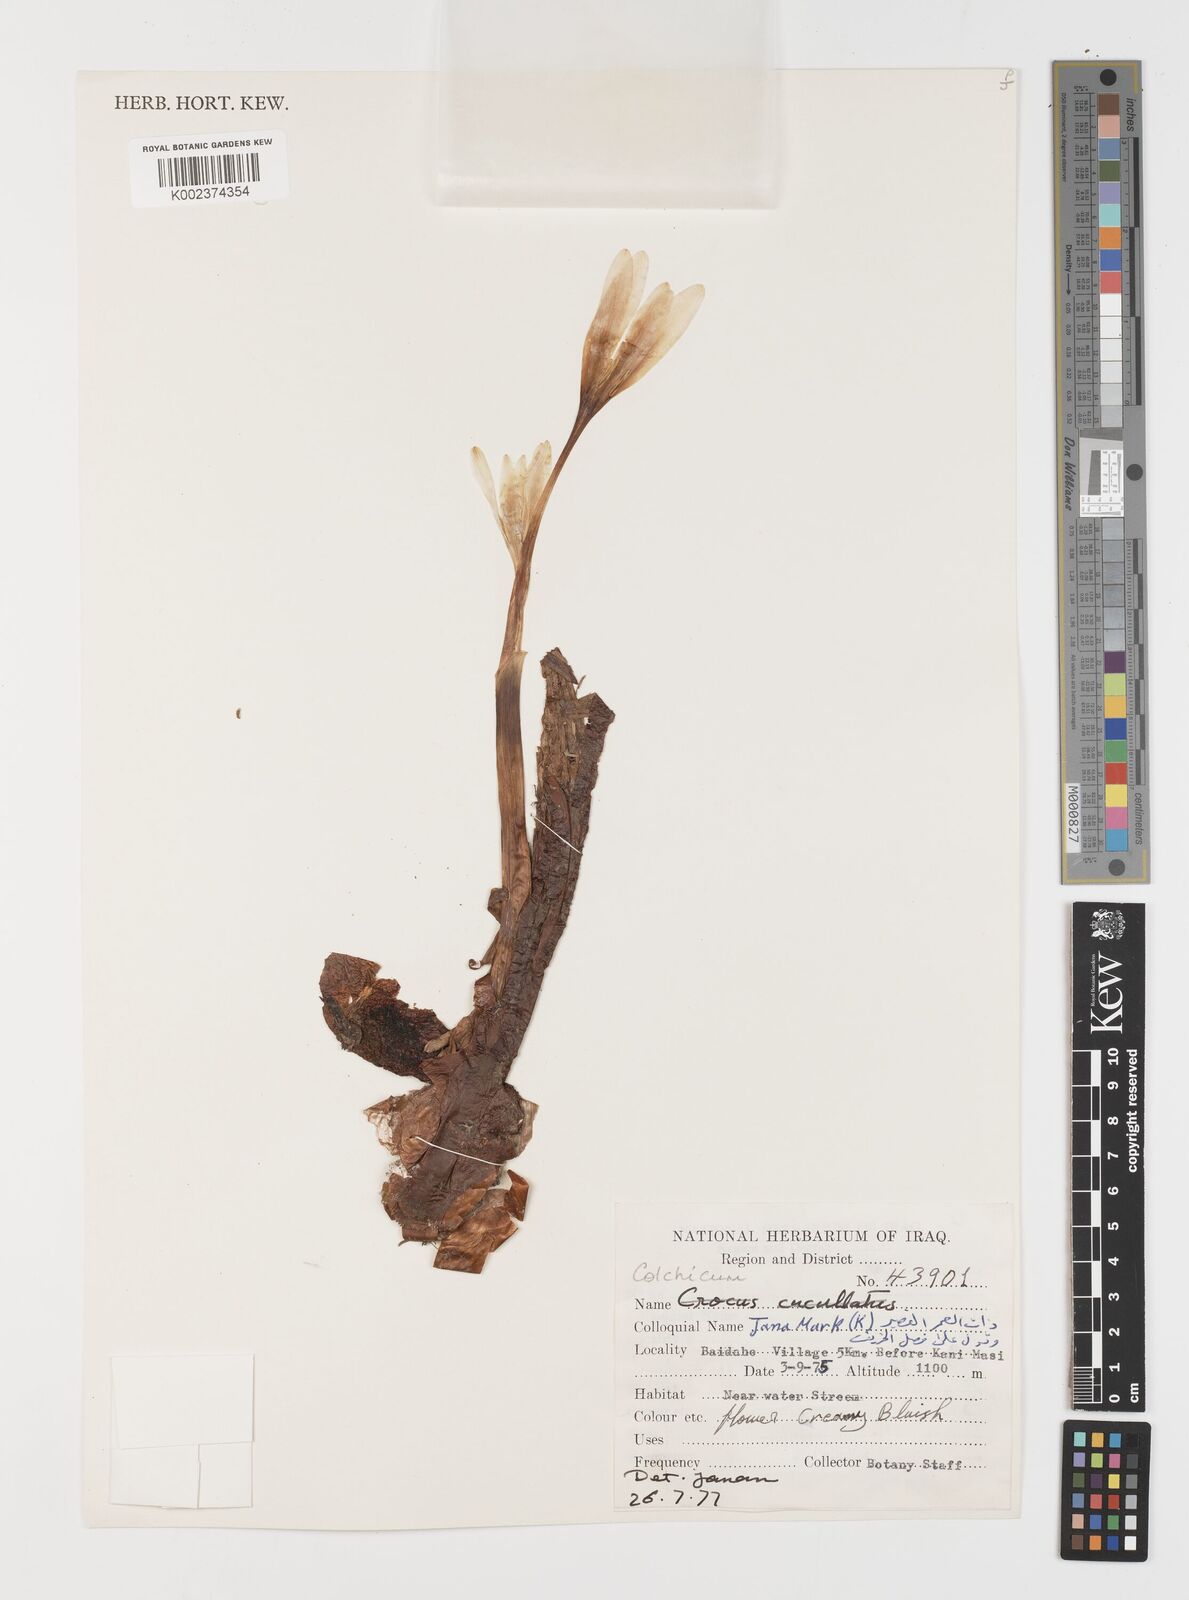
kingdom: Plantae
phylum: Tracheophyta
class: Liliopsida
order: Liliales
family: Colchicaceae
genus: Colchicum
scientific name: Colchicum
